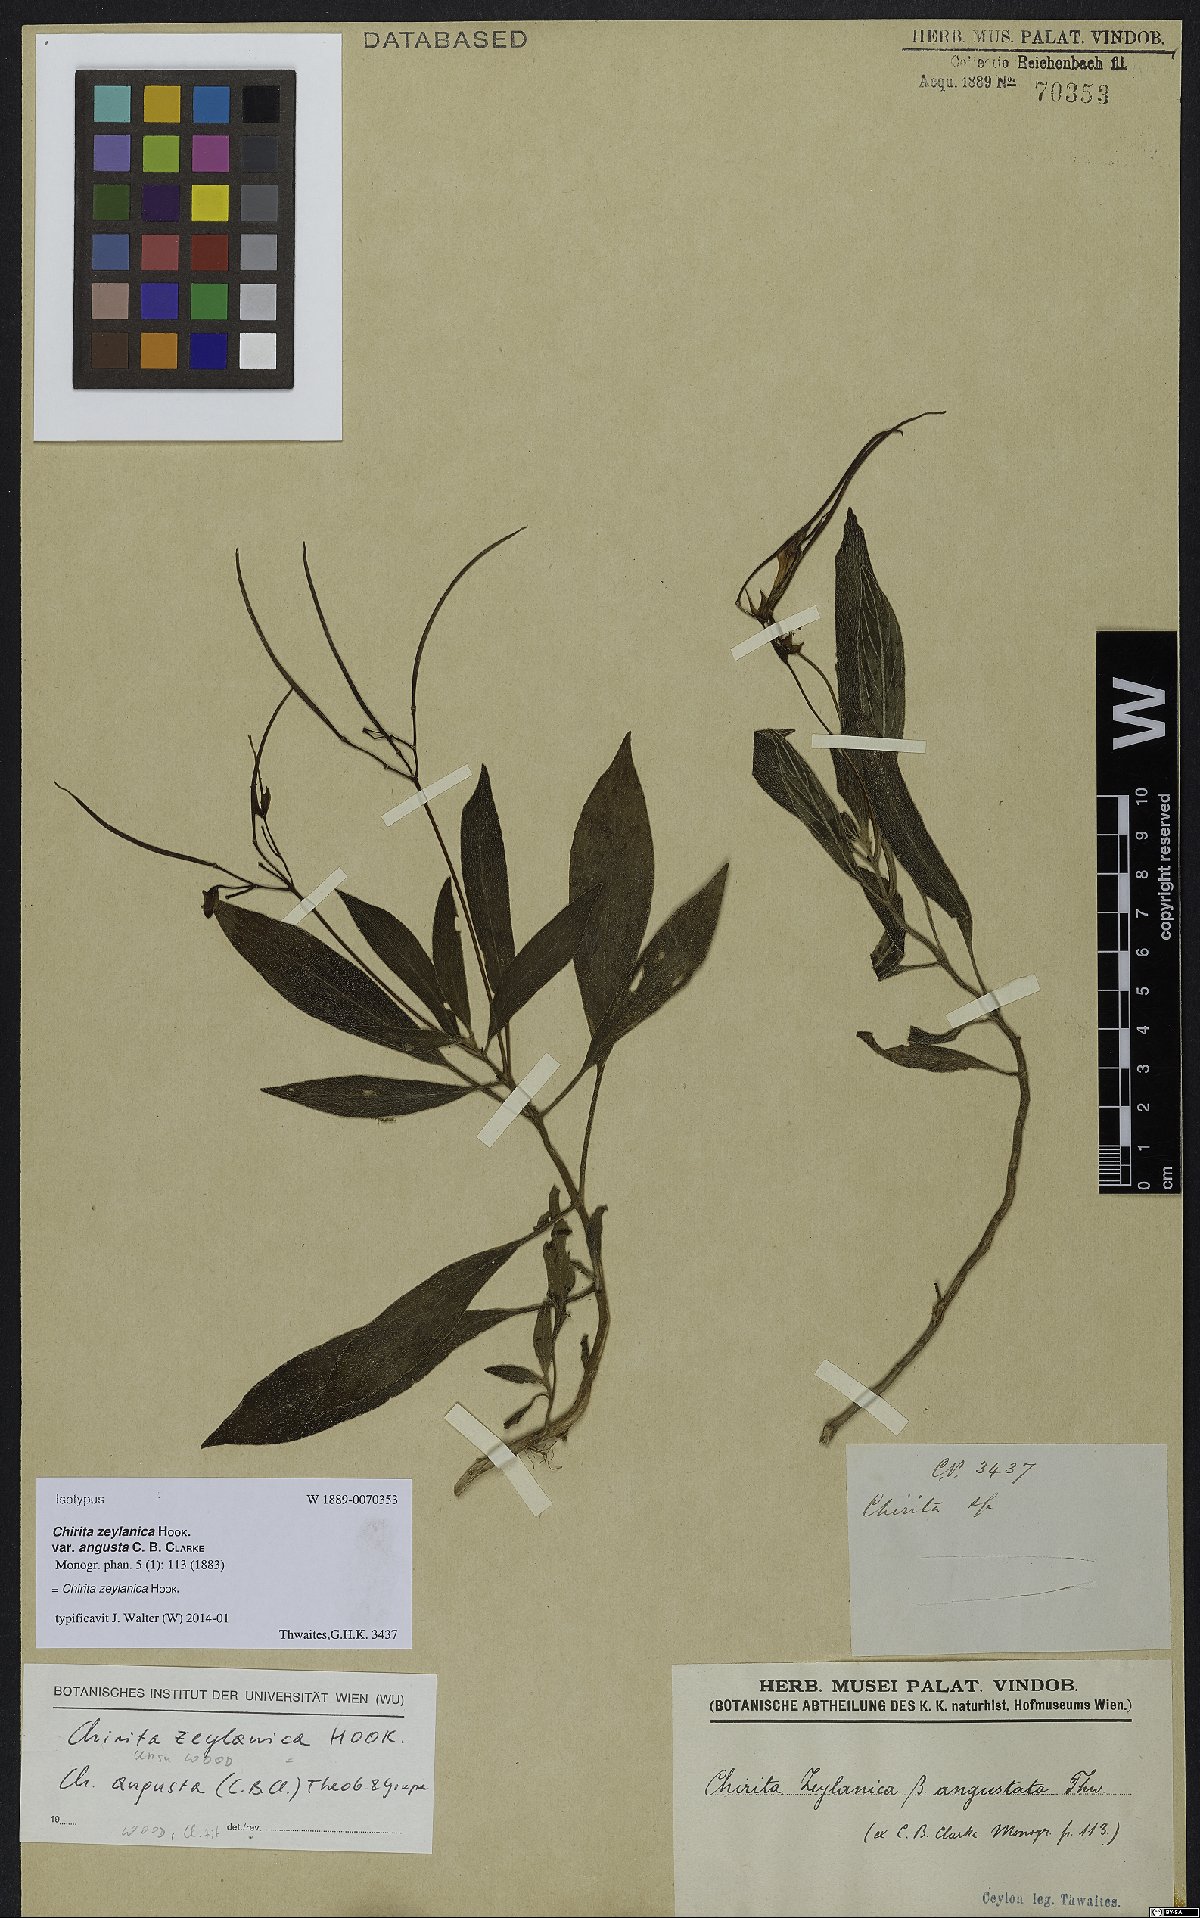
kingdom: Plantae
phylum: Tracheophyta
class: Magnoliopsida
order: Lamiales
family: Gesneriaceae
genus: Henckelia
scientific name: Henckelia communis
